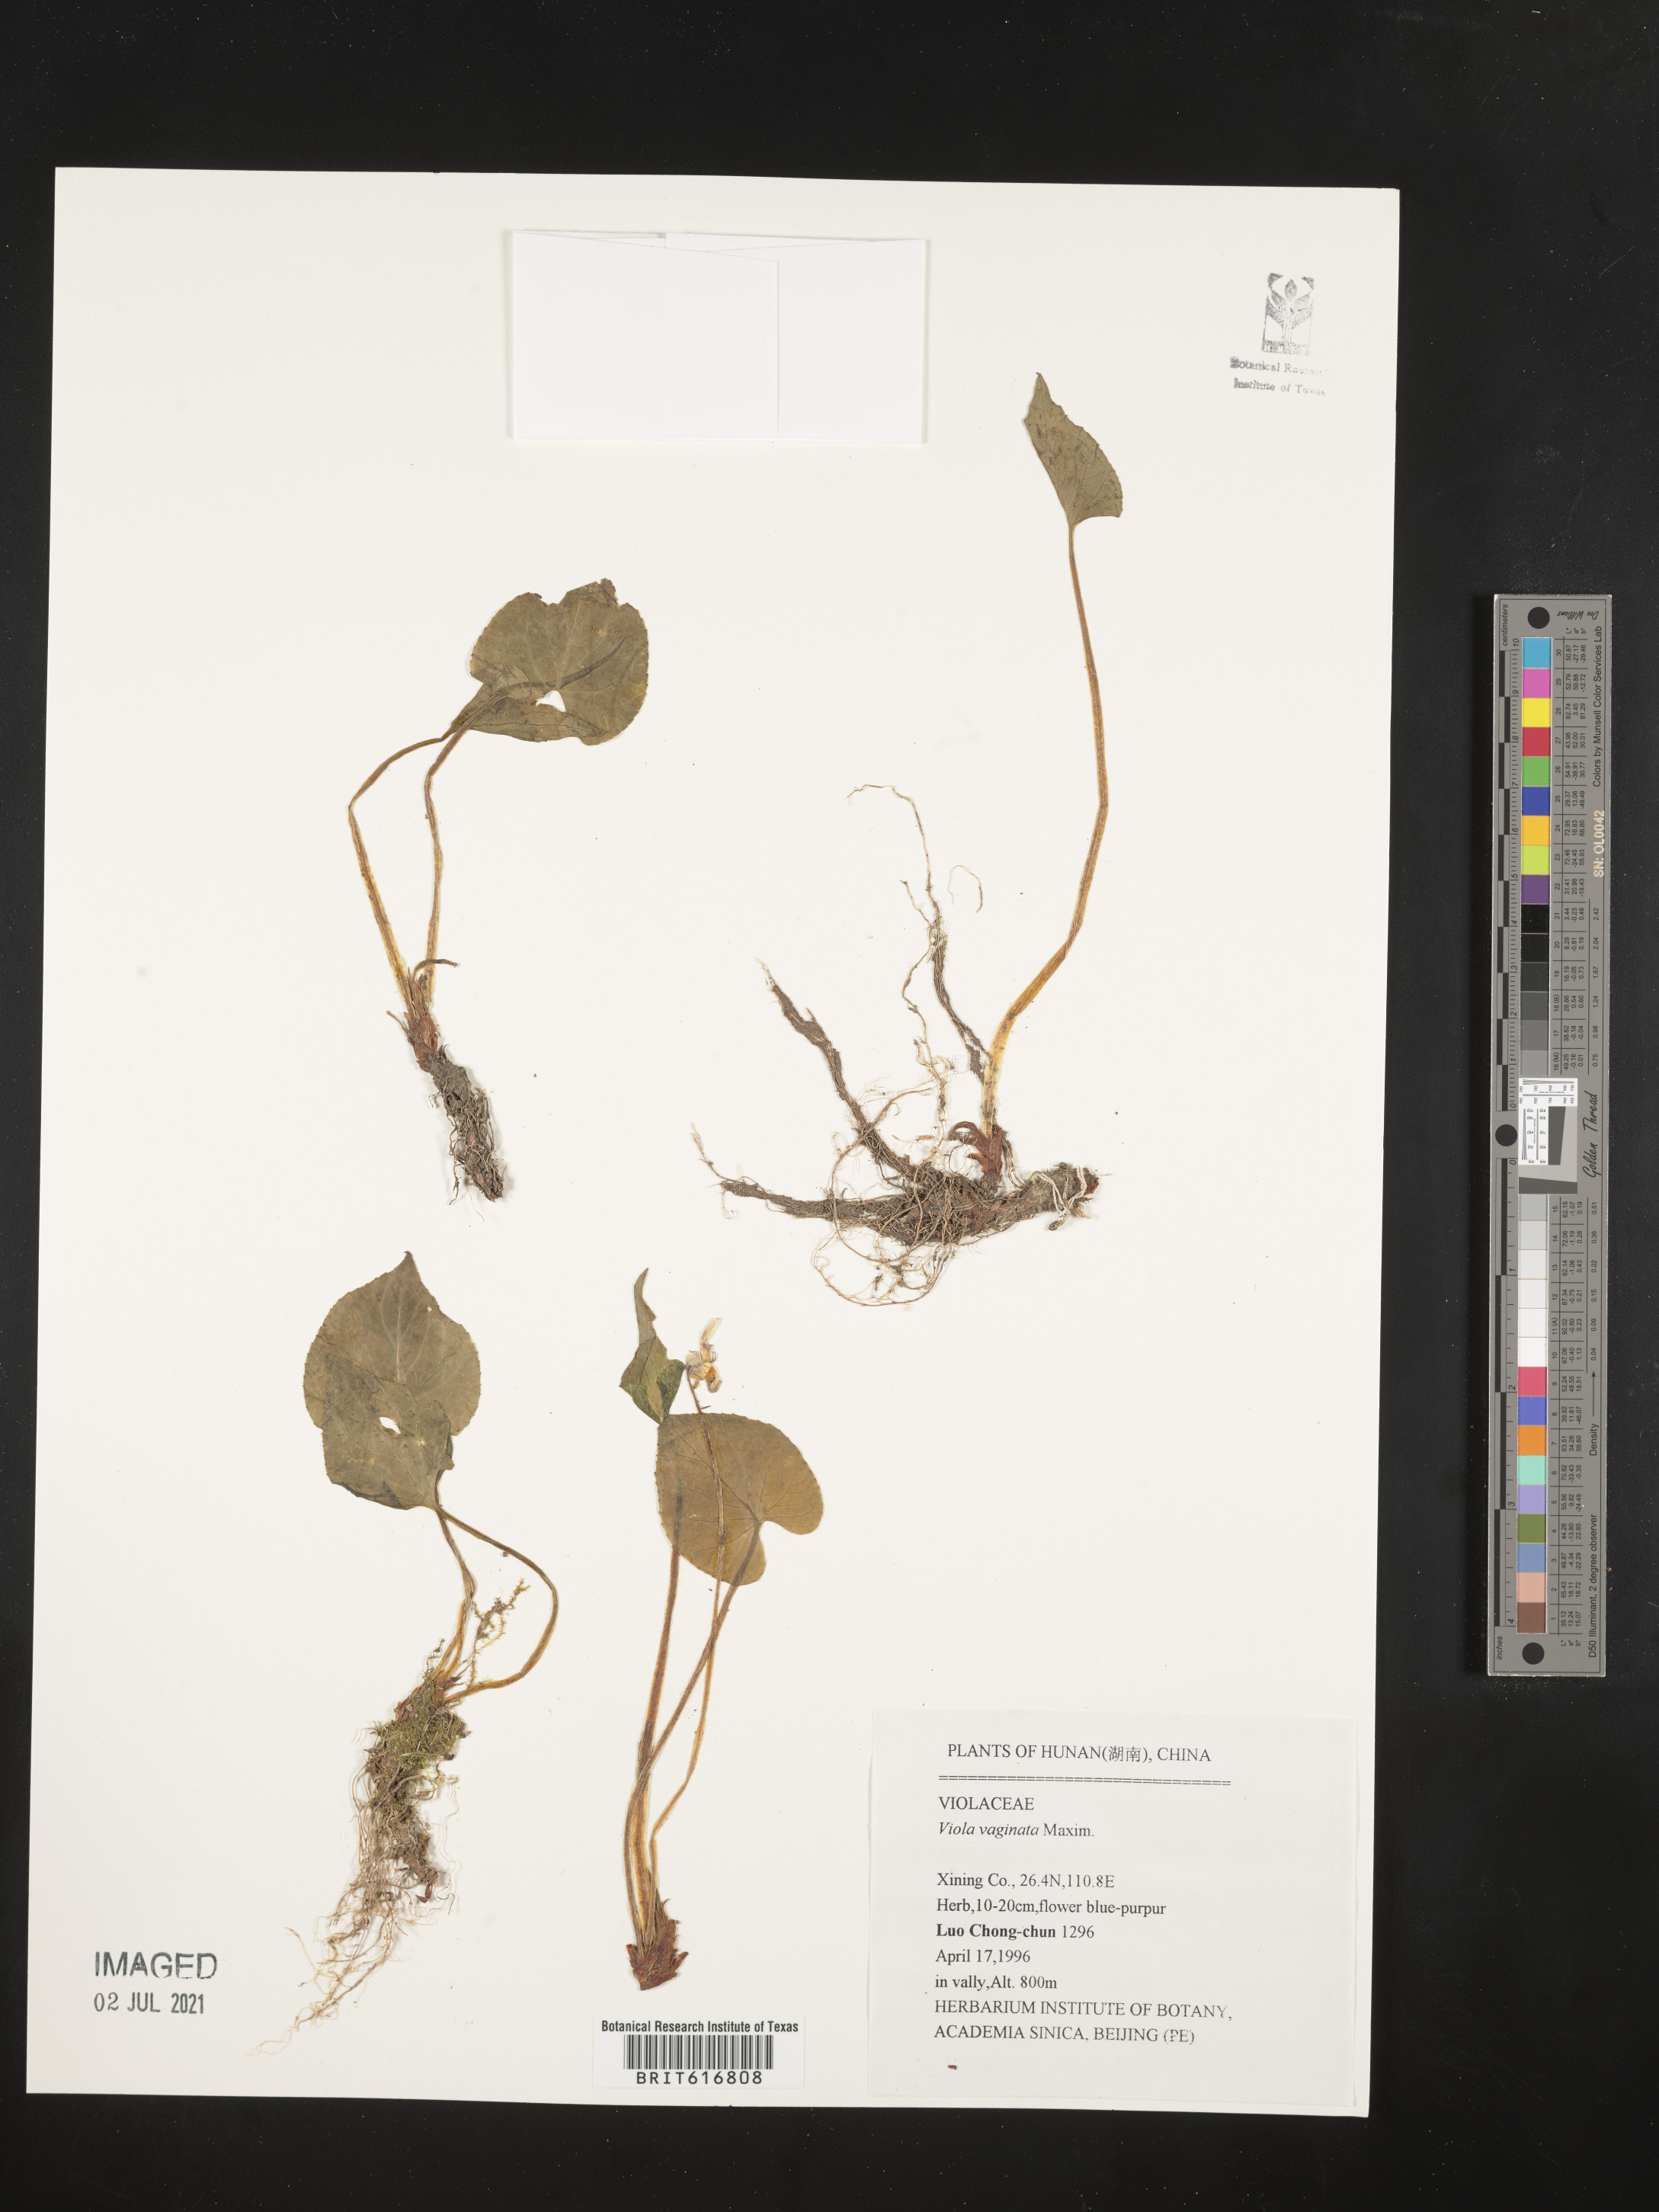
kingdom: Plantae
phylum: Tracheophyta
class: Magnoliopsida
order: Malpighiales
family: Violaceae
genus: Viola
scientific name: Viola vaginata
